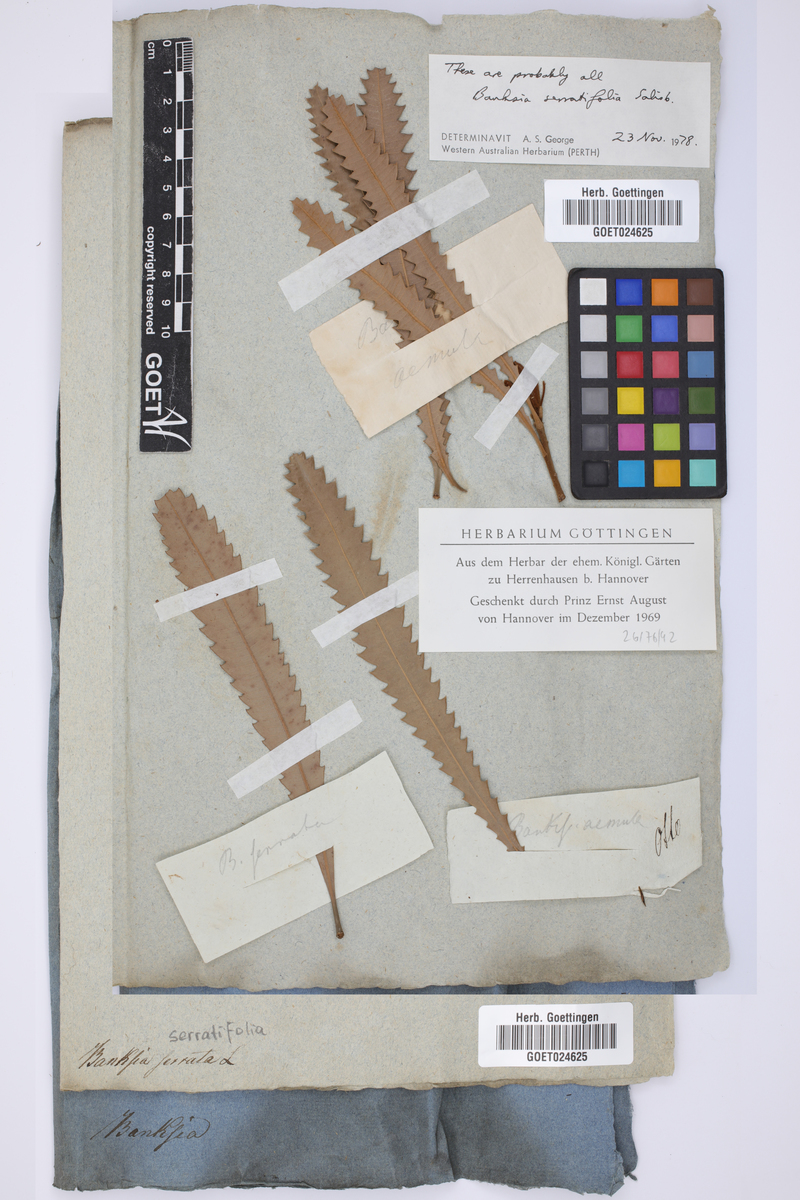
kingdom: Plantae
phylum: Tracheophyta
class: Magnoliopsida
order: Proteales
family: Proteaceae
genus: Banksia
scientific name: Banksia
